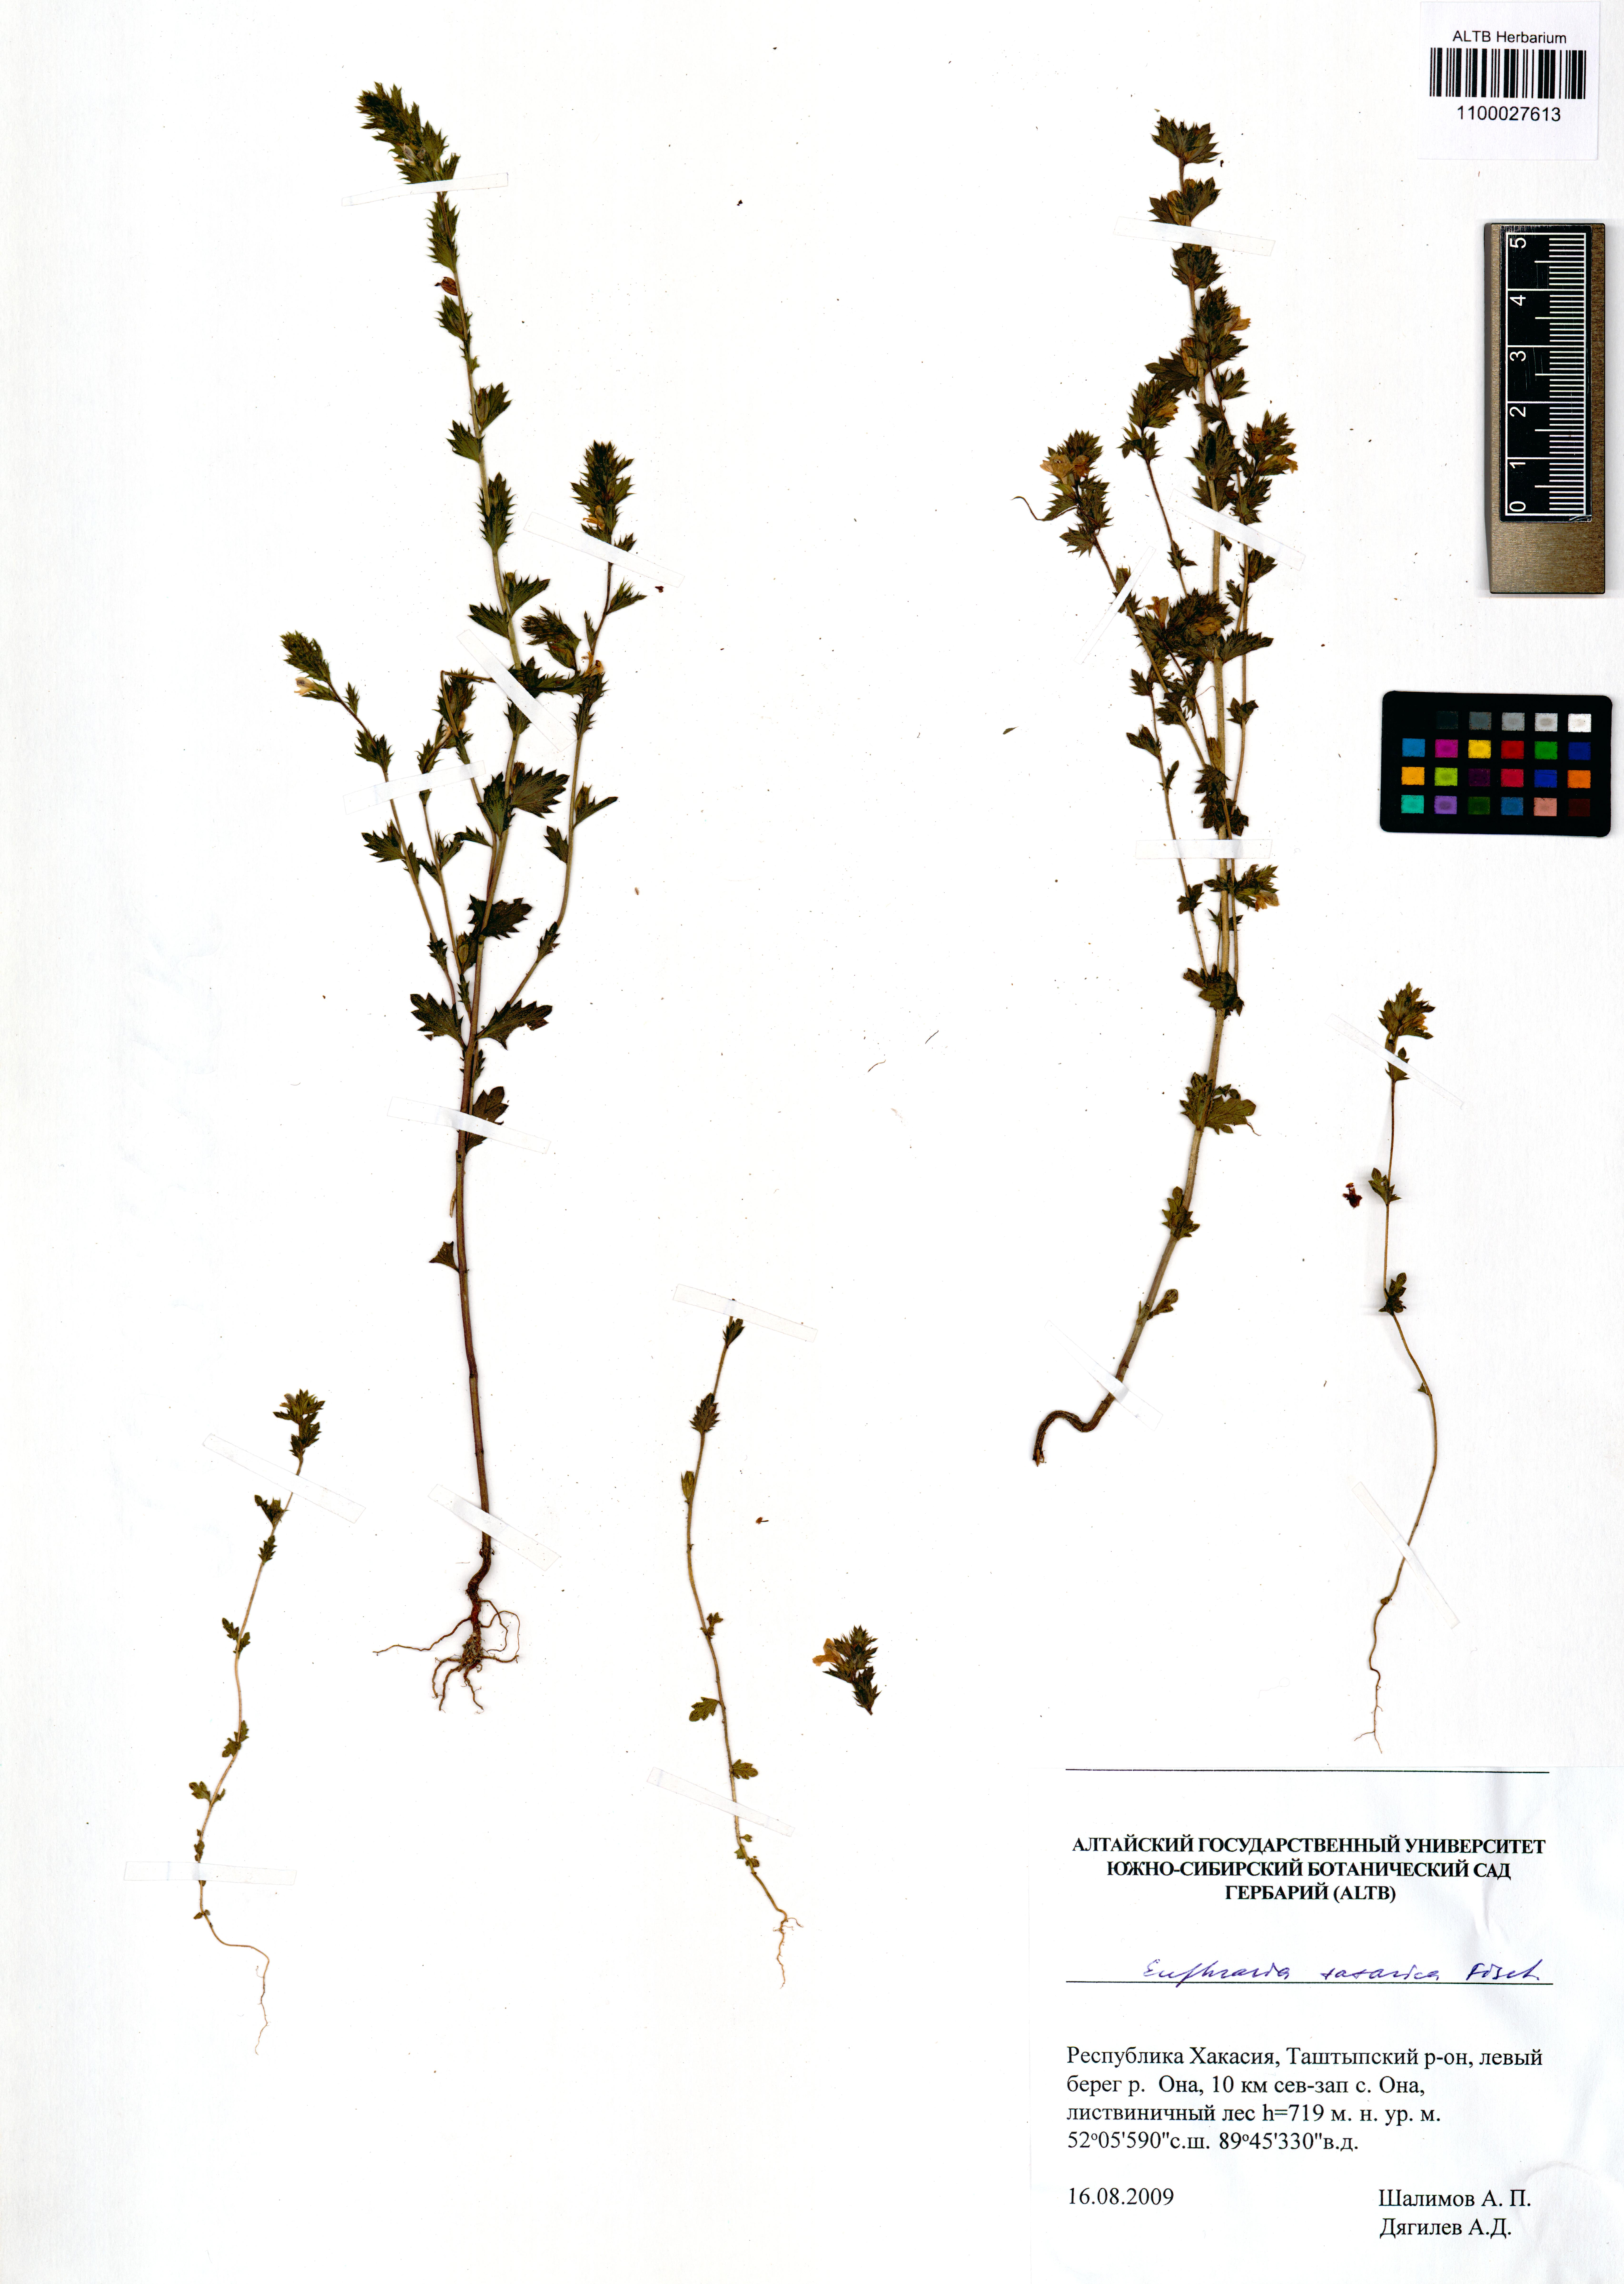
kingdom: Plantae
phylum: Tracheophyta
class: Magnoliopsida
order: Lamiales
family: Orobanchaceae
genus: Euphrasia
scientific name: Euphrasia pectinata
